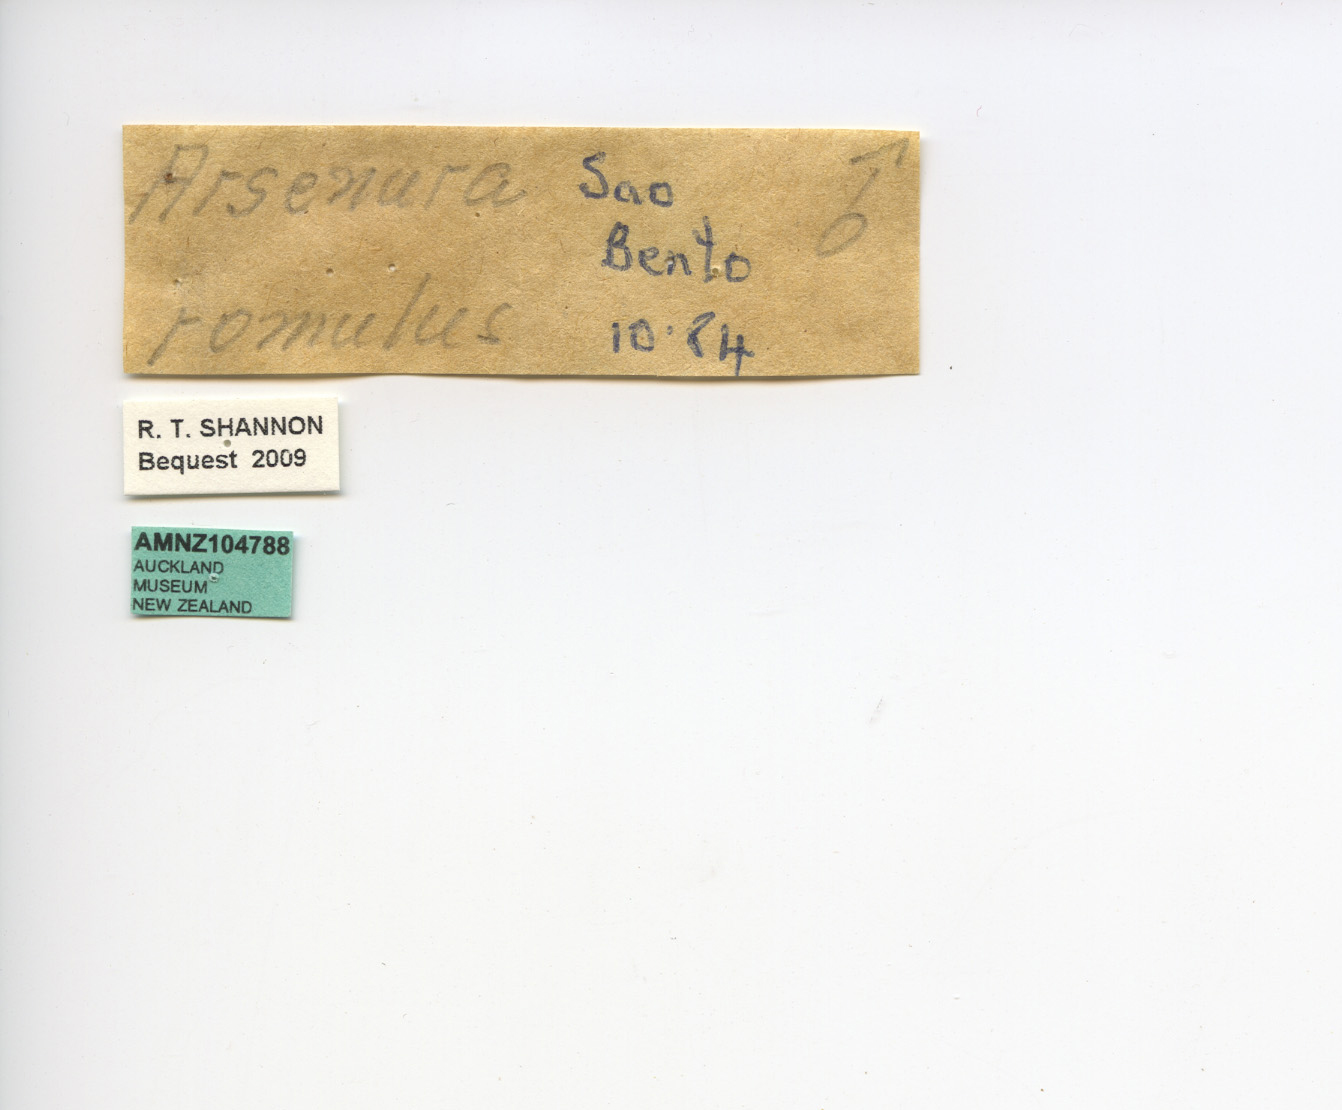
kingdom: Animalia
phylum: Arthropoda
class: Insecta
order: Lepidoptera
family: Saturniidae
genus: Arsenura
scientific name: Arsenura
